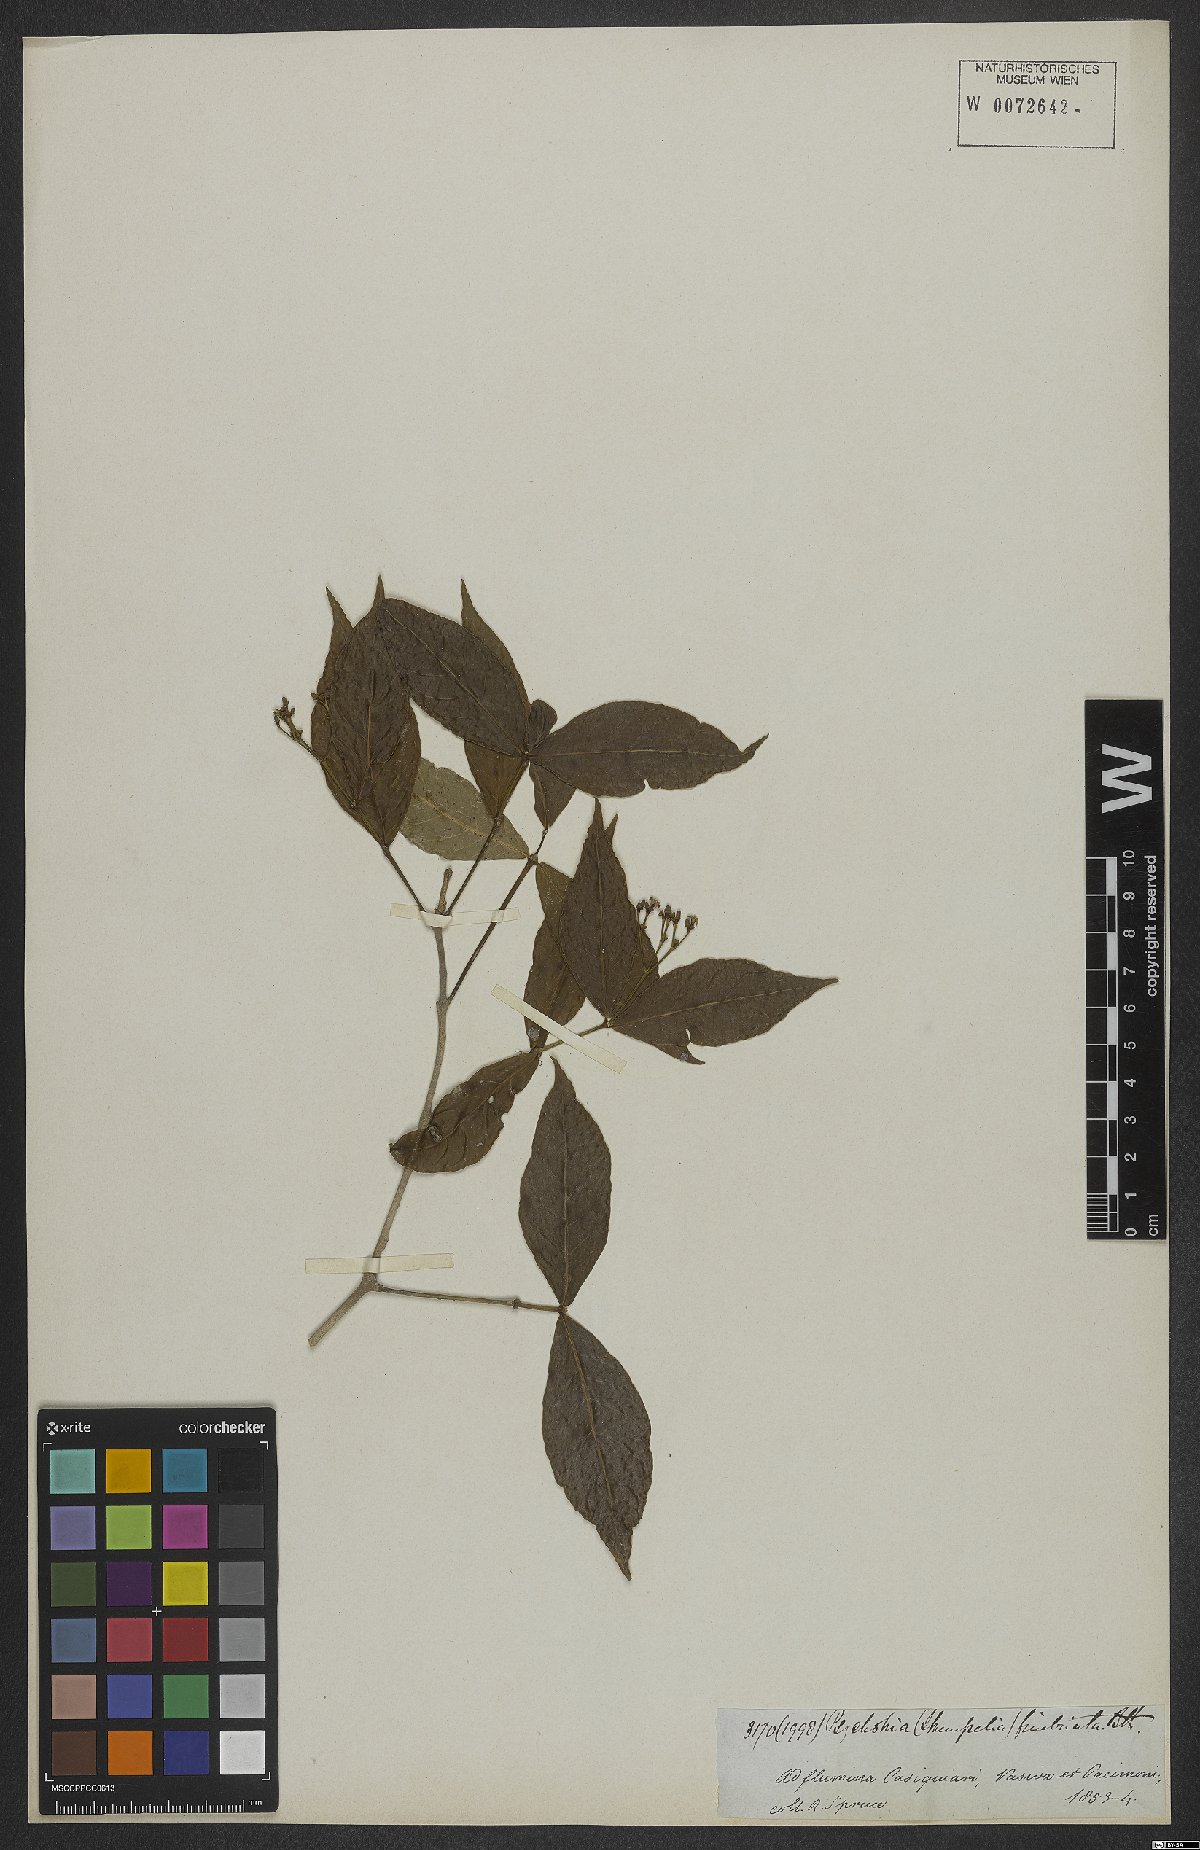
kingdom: Plantae
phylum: Tracheophyta
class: Magnoliopsida
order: Gentianales
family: Rubiaceae
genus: Rudgea
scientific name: Rudgea cornifolia
